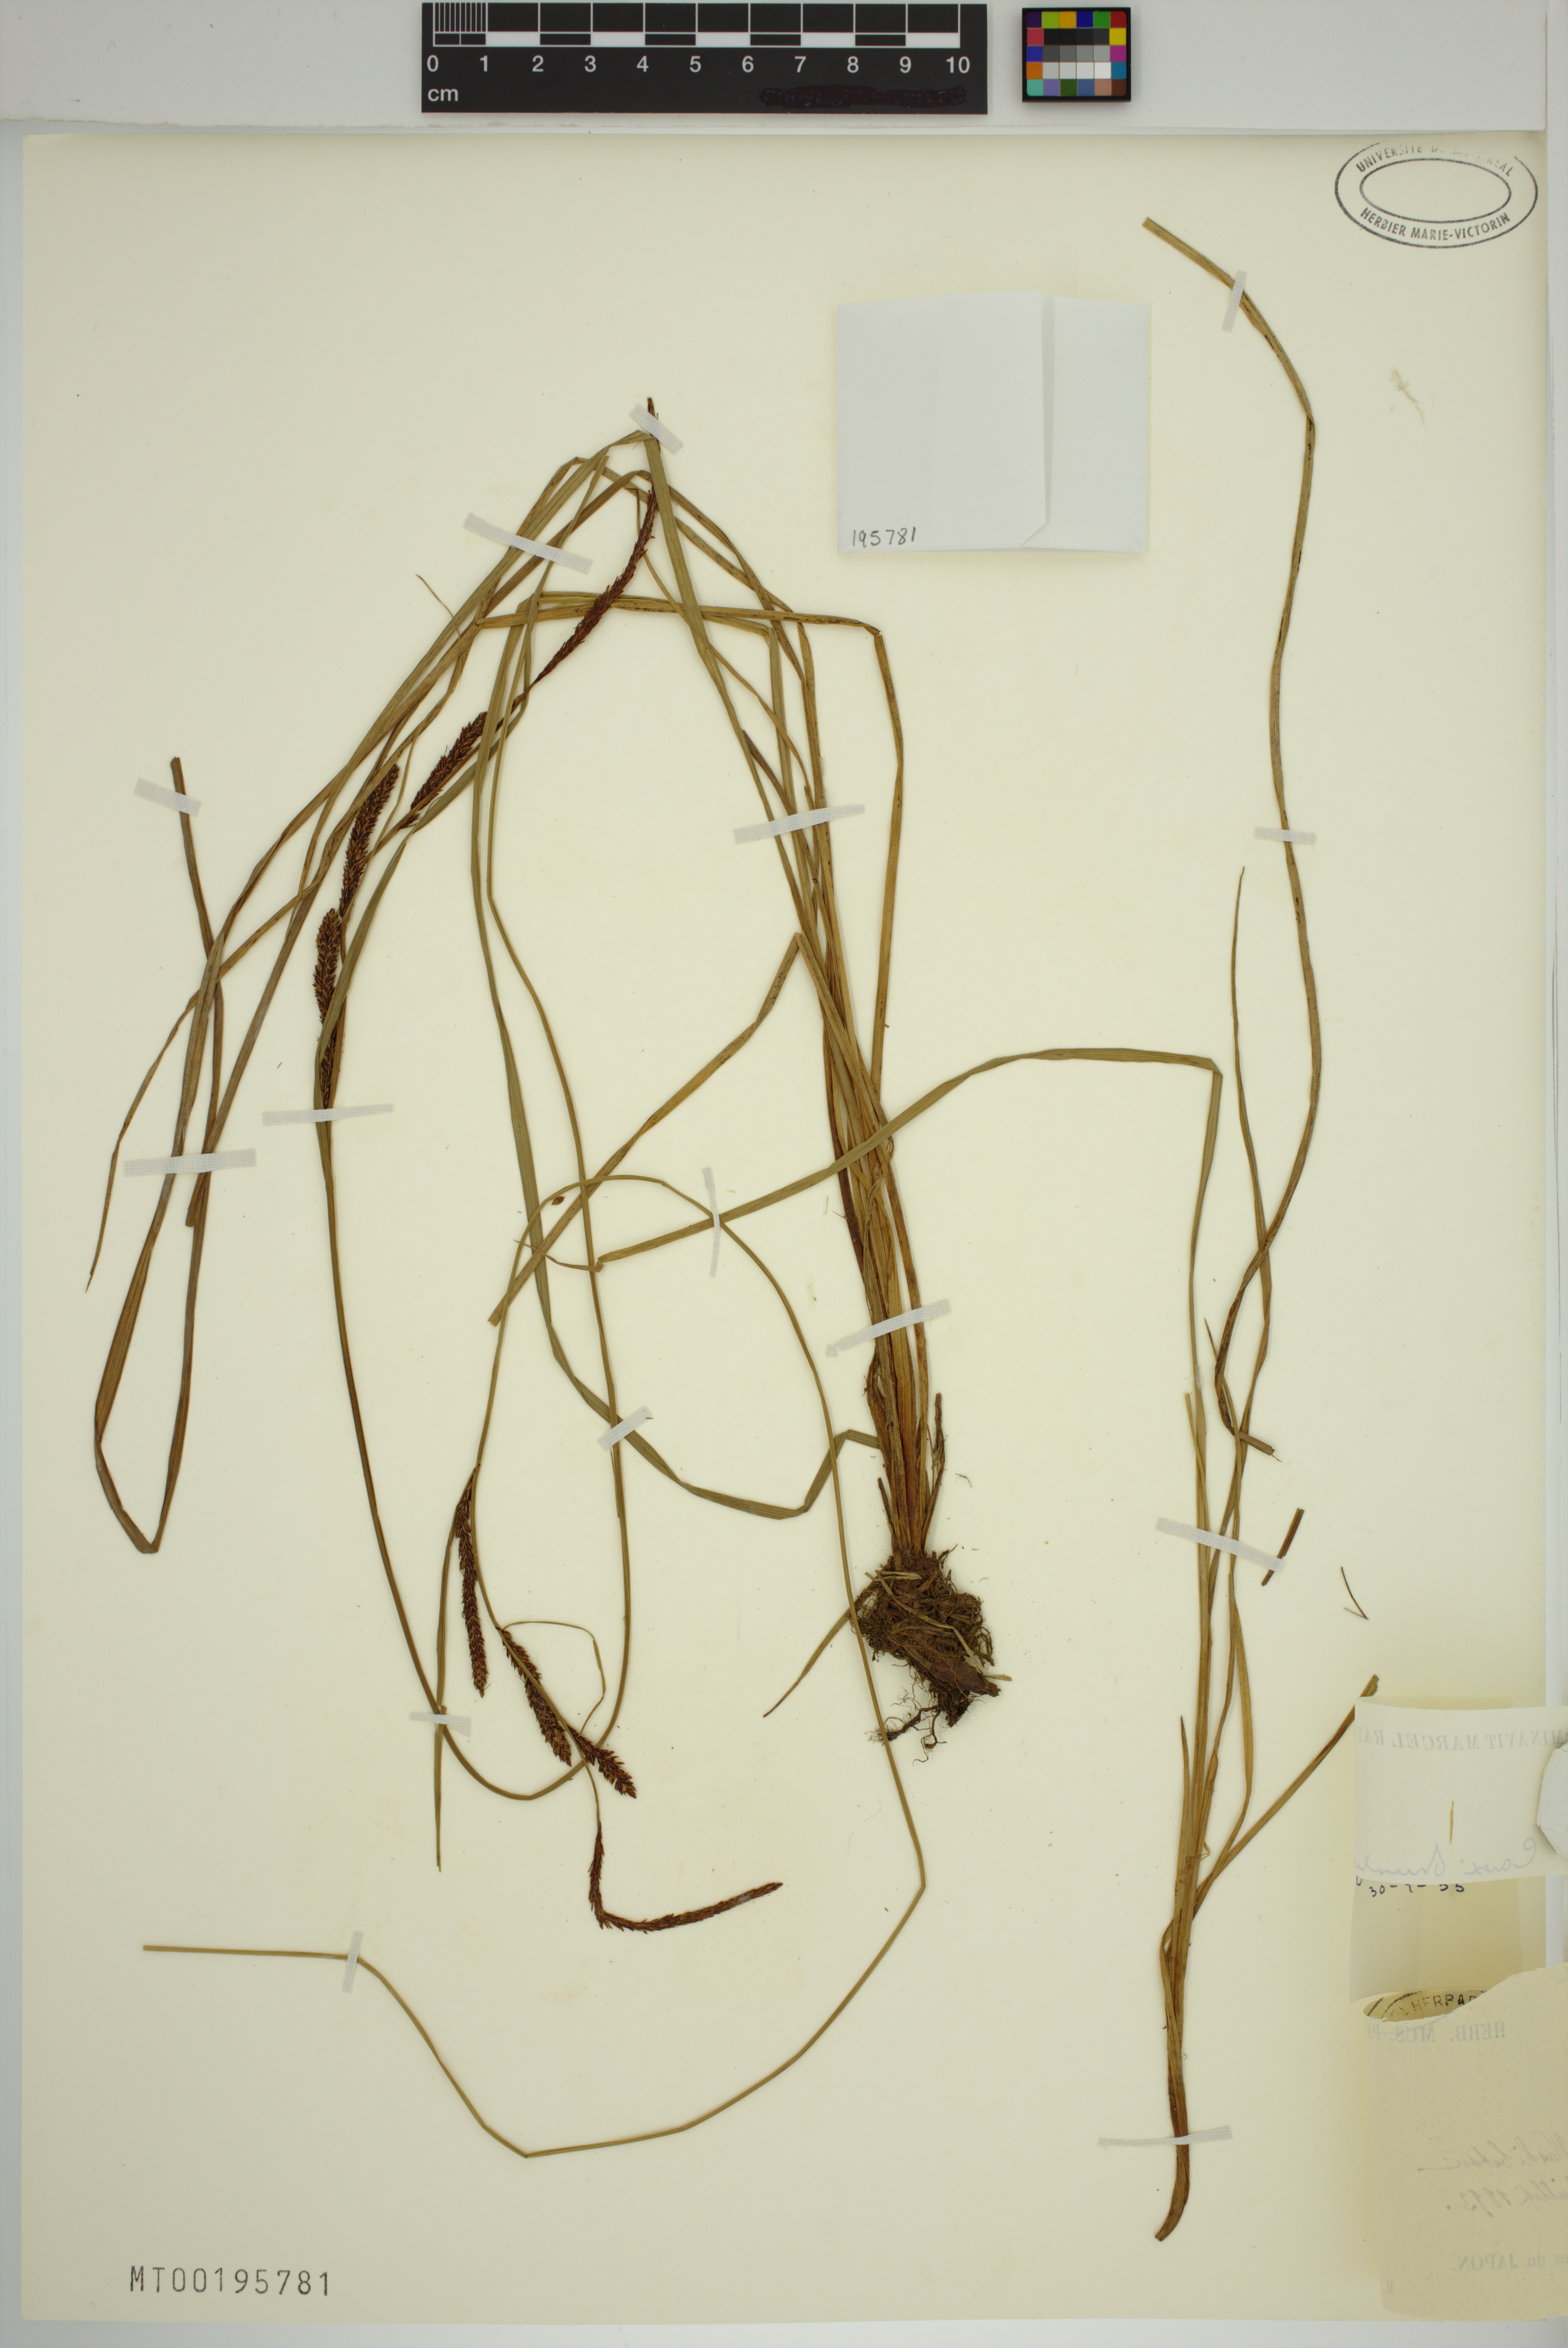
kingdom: Plantae
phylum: Tracheophyta
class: Liliopsida
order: Poales
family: Cyperaceae
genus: Carex
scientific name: Carex thunbergii
